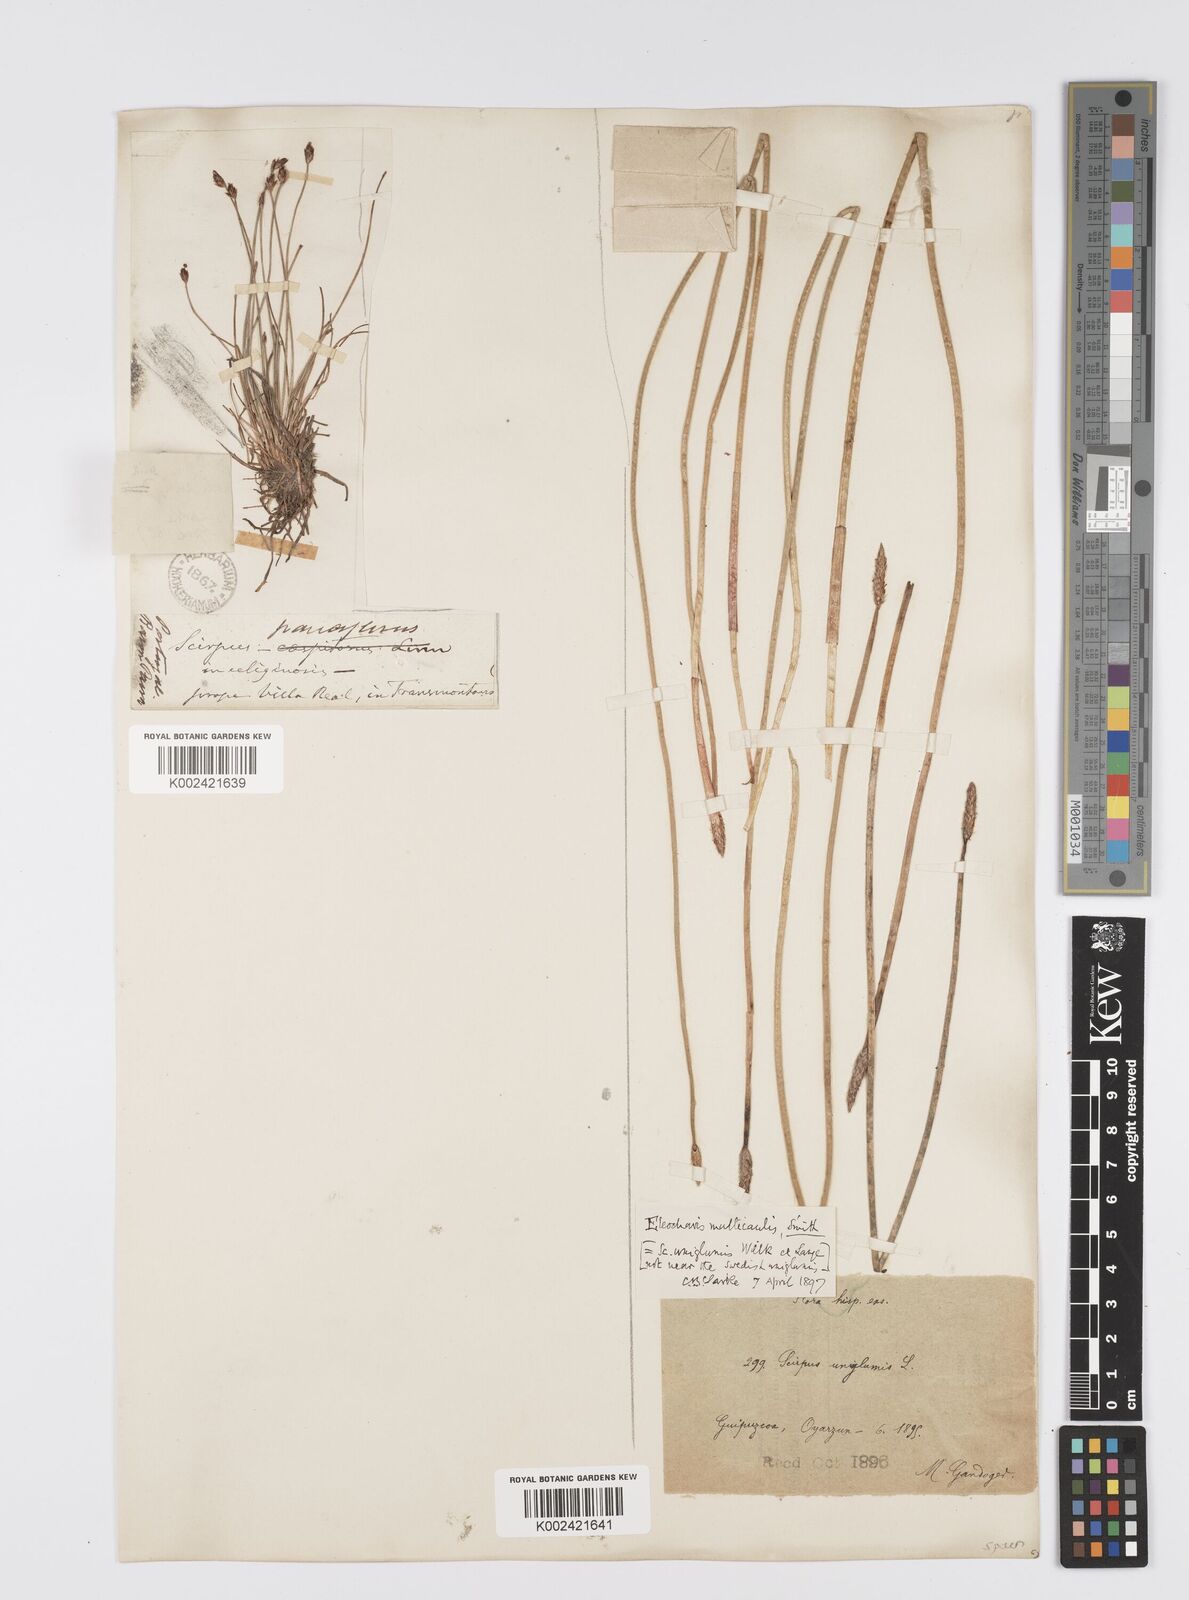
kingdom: Plantae
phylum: Tracheophyta
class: Liliopsida
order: Poales
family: Cyperaceae
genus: Eleocharis
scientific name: Eleocharis multicaulis
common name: Many-stalked spike-rush
